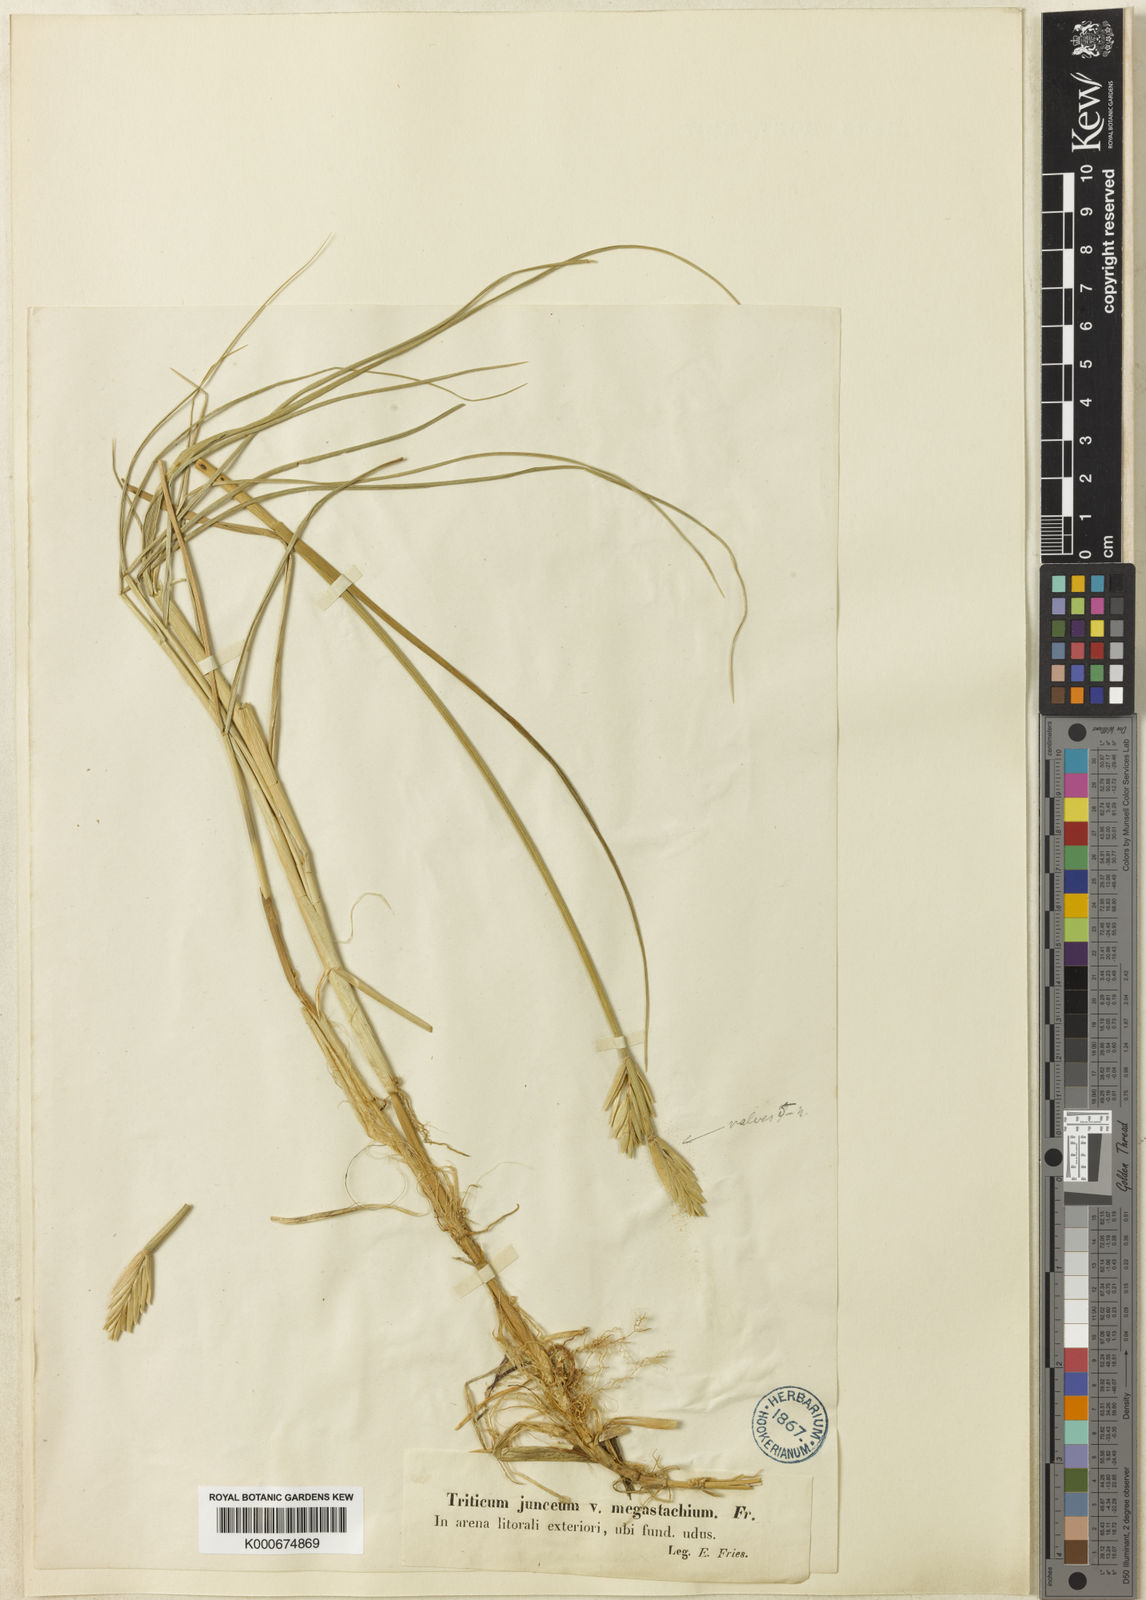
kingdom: Plantae
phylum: Tracheophyta
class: Liliopsida
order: Poales
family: Poaceae
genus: Elymus
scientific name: Elymus repens
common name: Quackgrass
